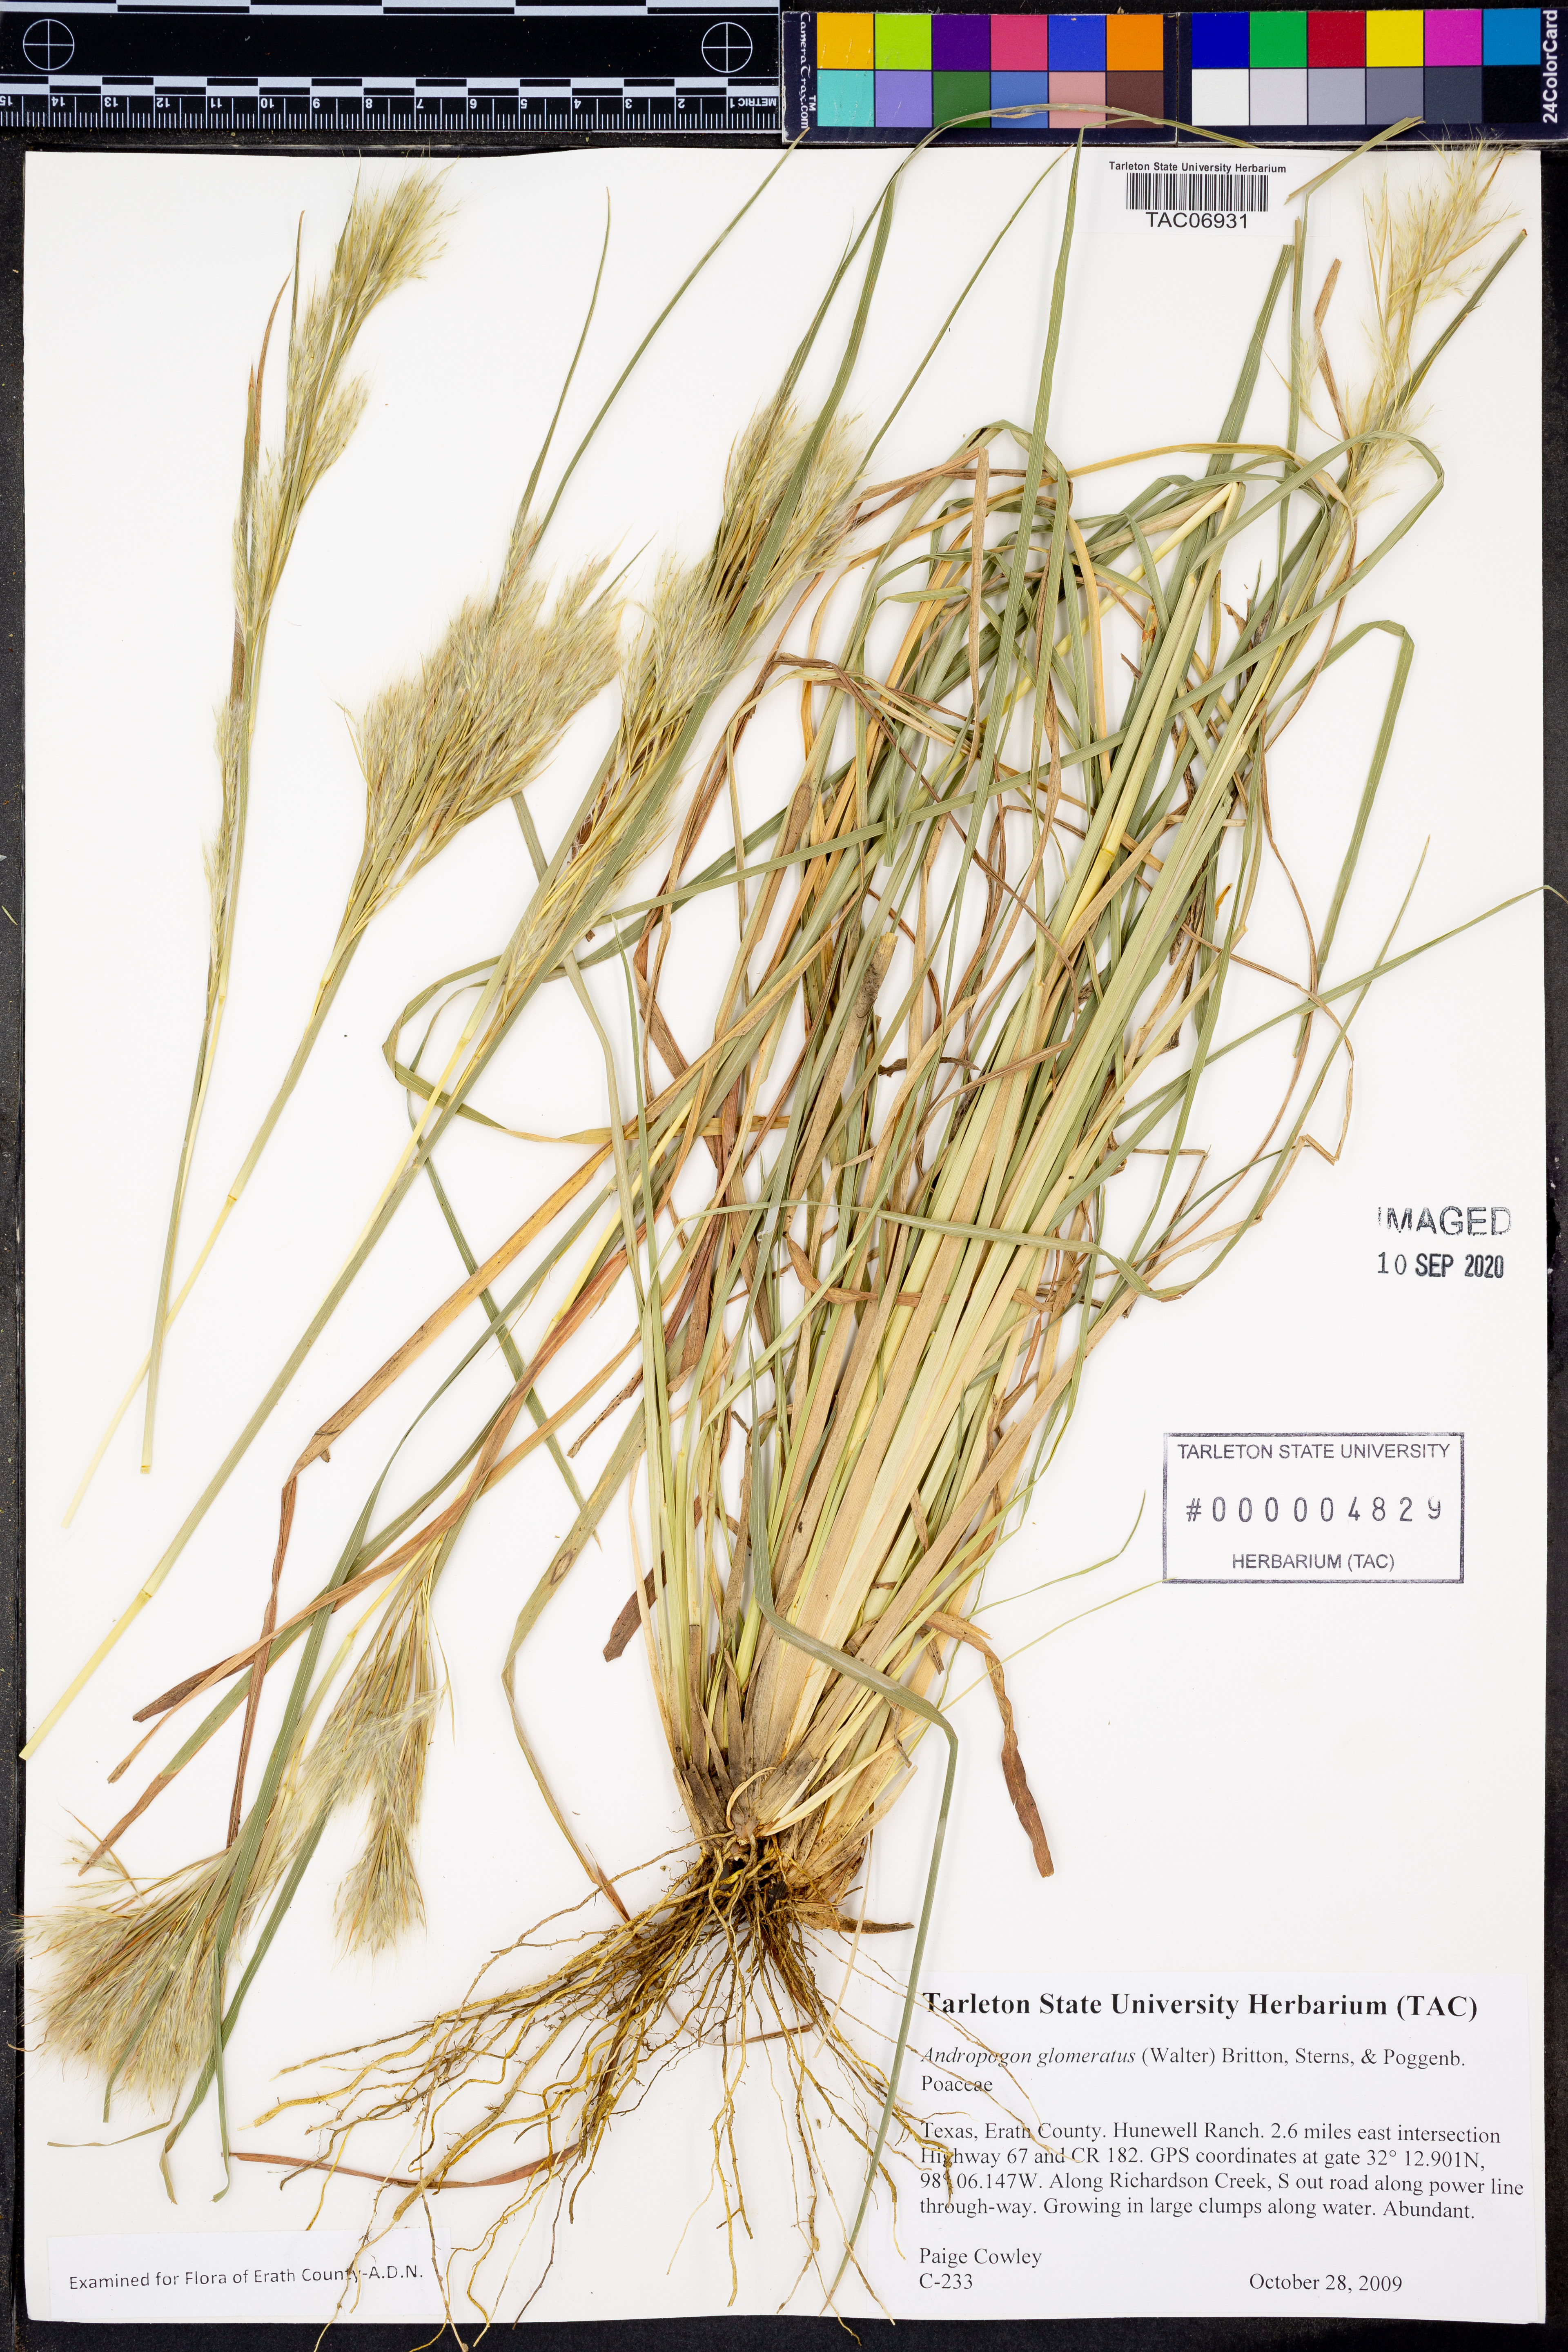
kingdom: Plantae
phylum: Tracheophyta
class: Liliopsida
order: Poales
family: Poaceae
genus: Andropogon
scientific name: Andropogon glomeratus
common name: Bushy beard grass
